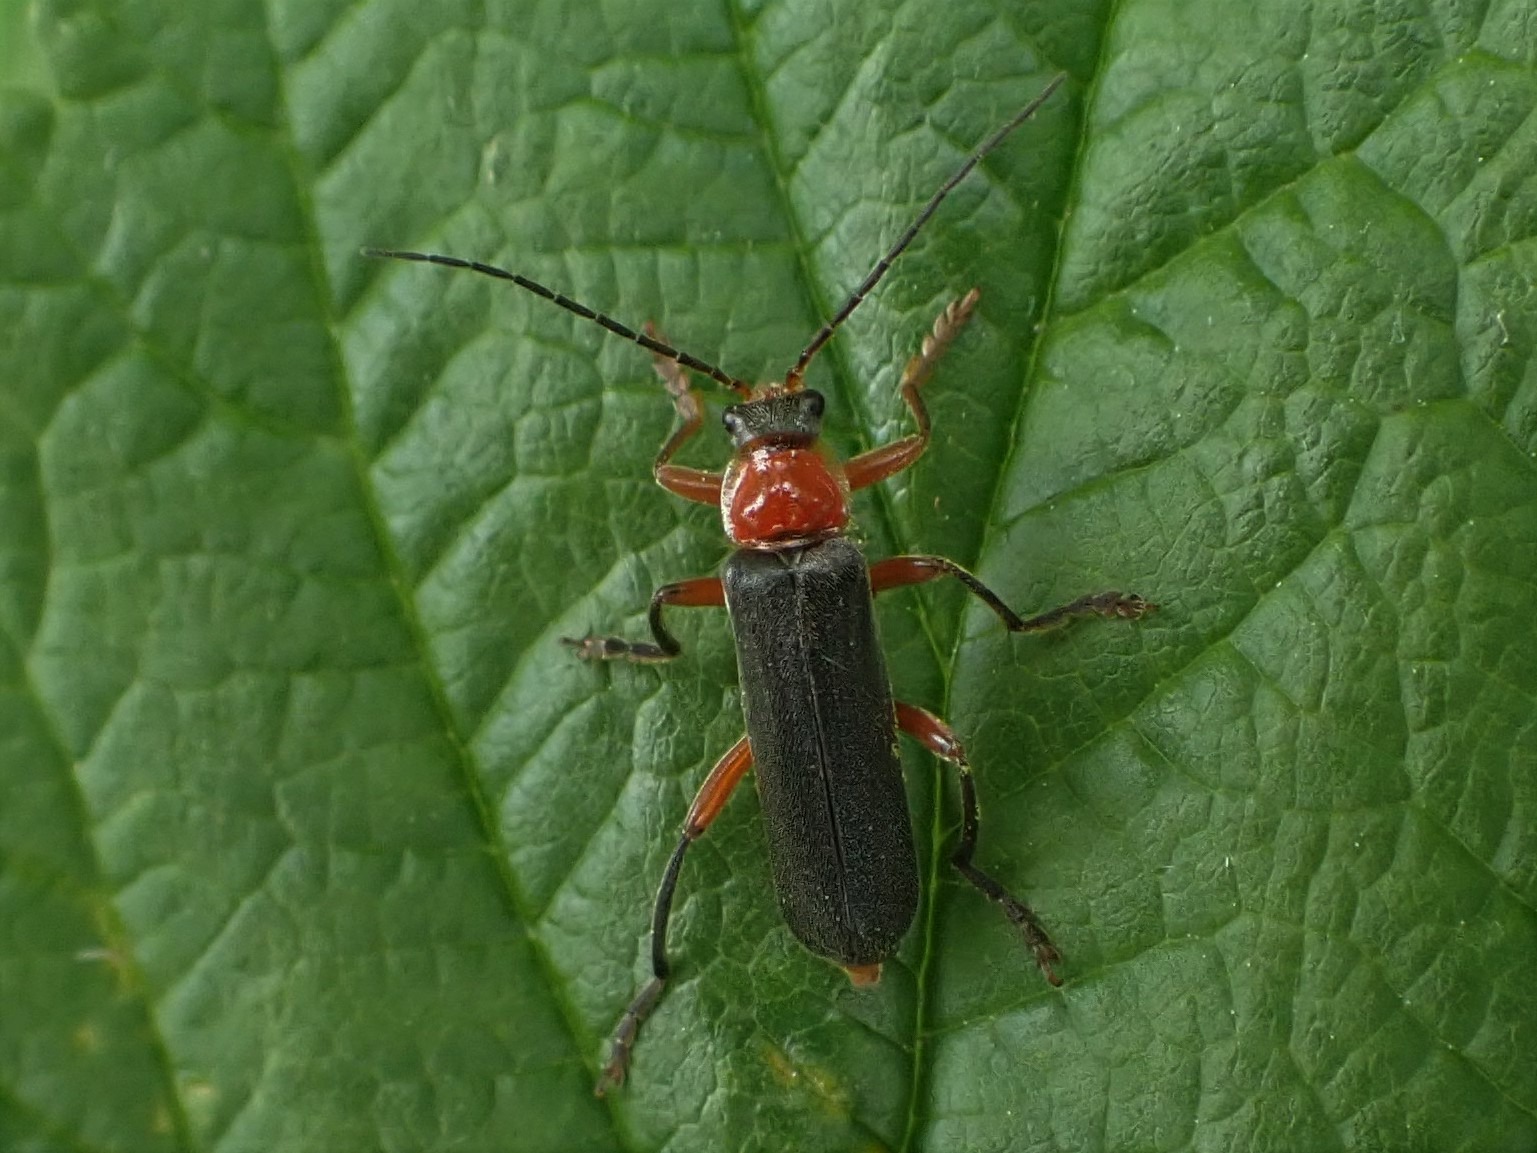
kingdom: Animalia
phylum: Arthropoda
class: Insecta
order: Coleoptera
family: Cantharidae
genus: Cantharis
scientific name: Cantharis pellucida
